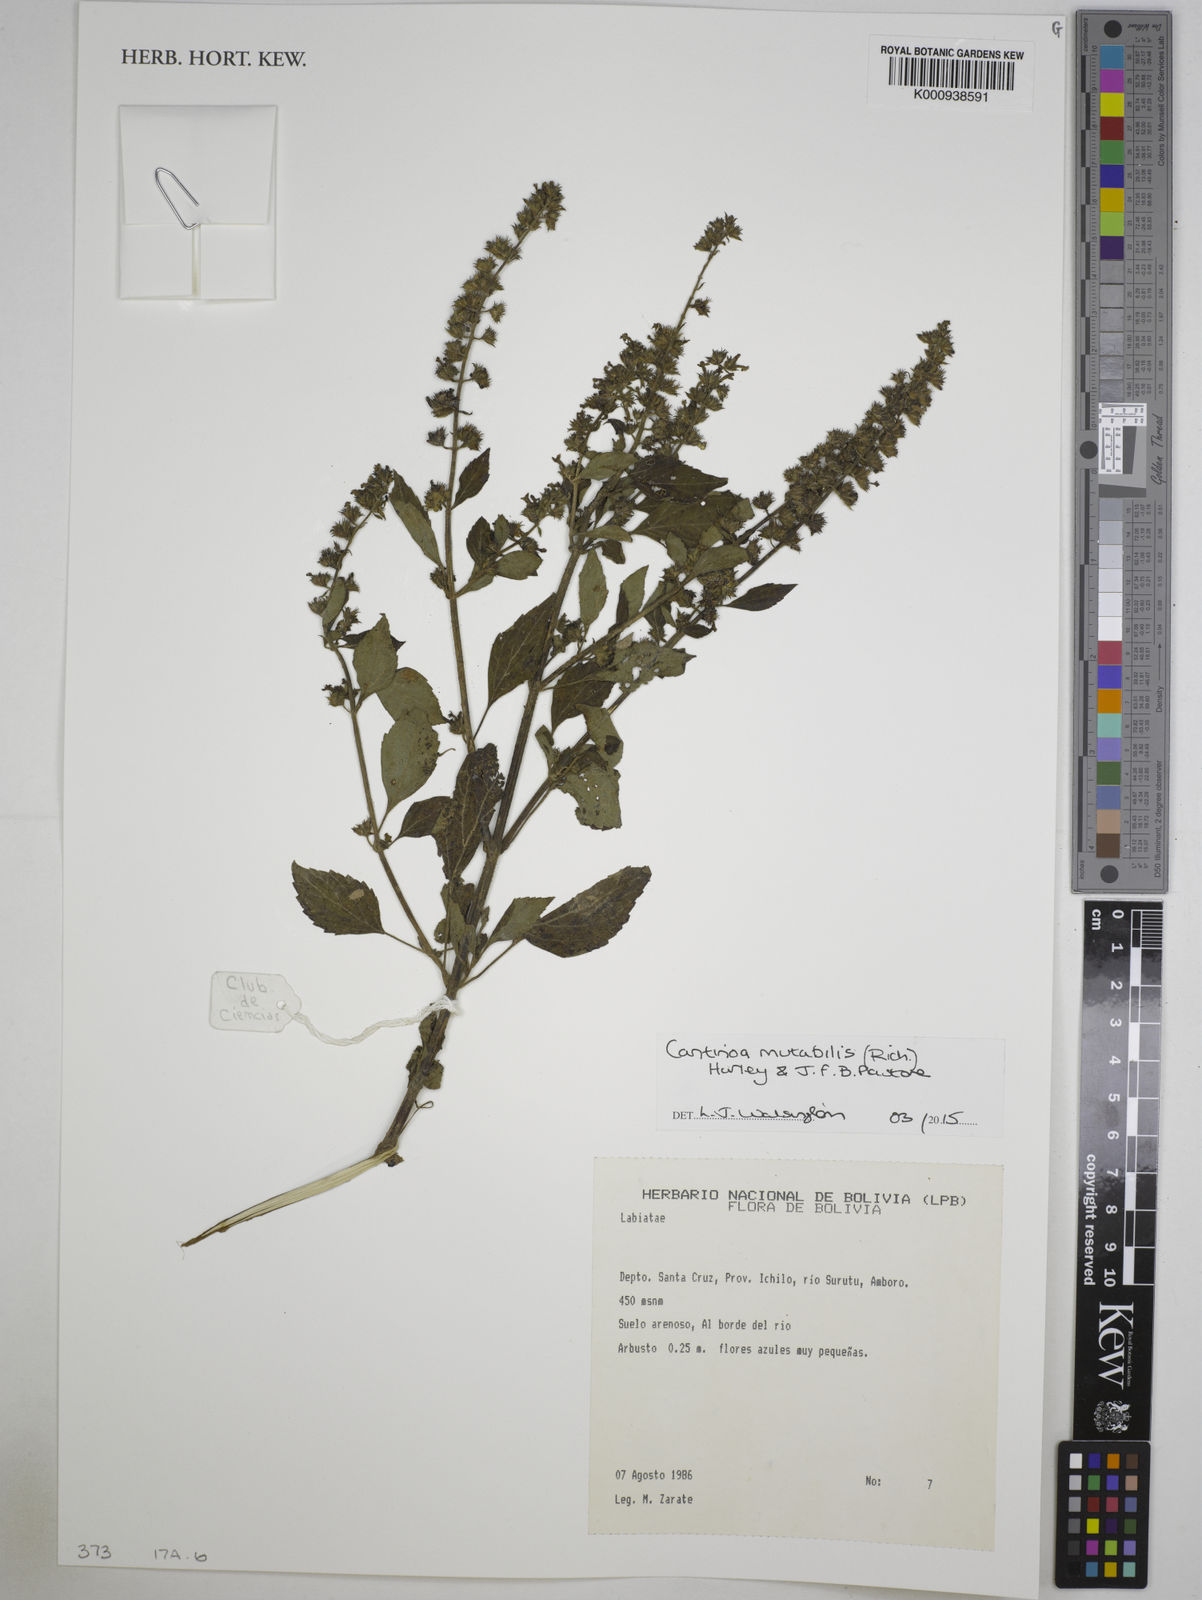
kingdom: Plantae
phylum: Tracheophyta
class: Magnoliopsida
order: Lamiales
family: Lamiaceae
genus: Cantinoa
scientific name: Cantinoa mutabilis
